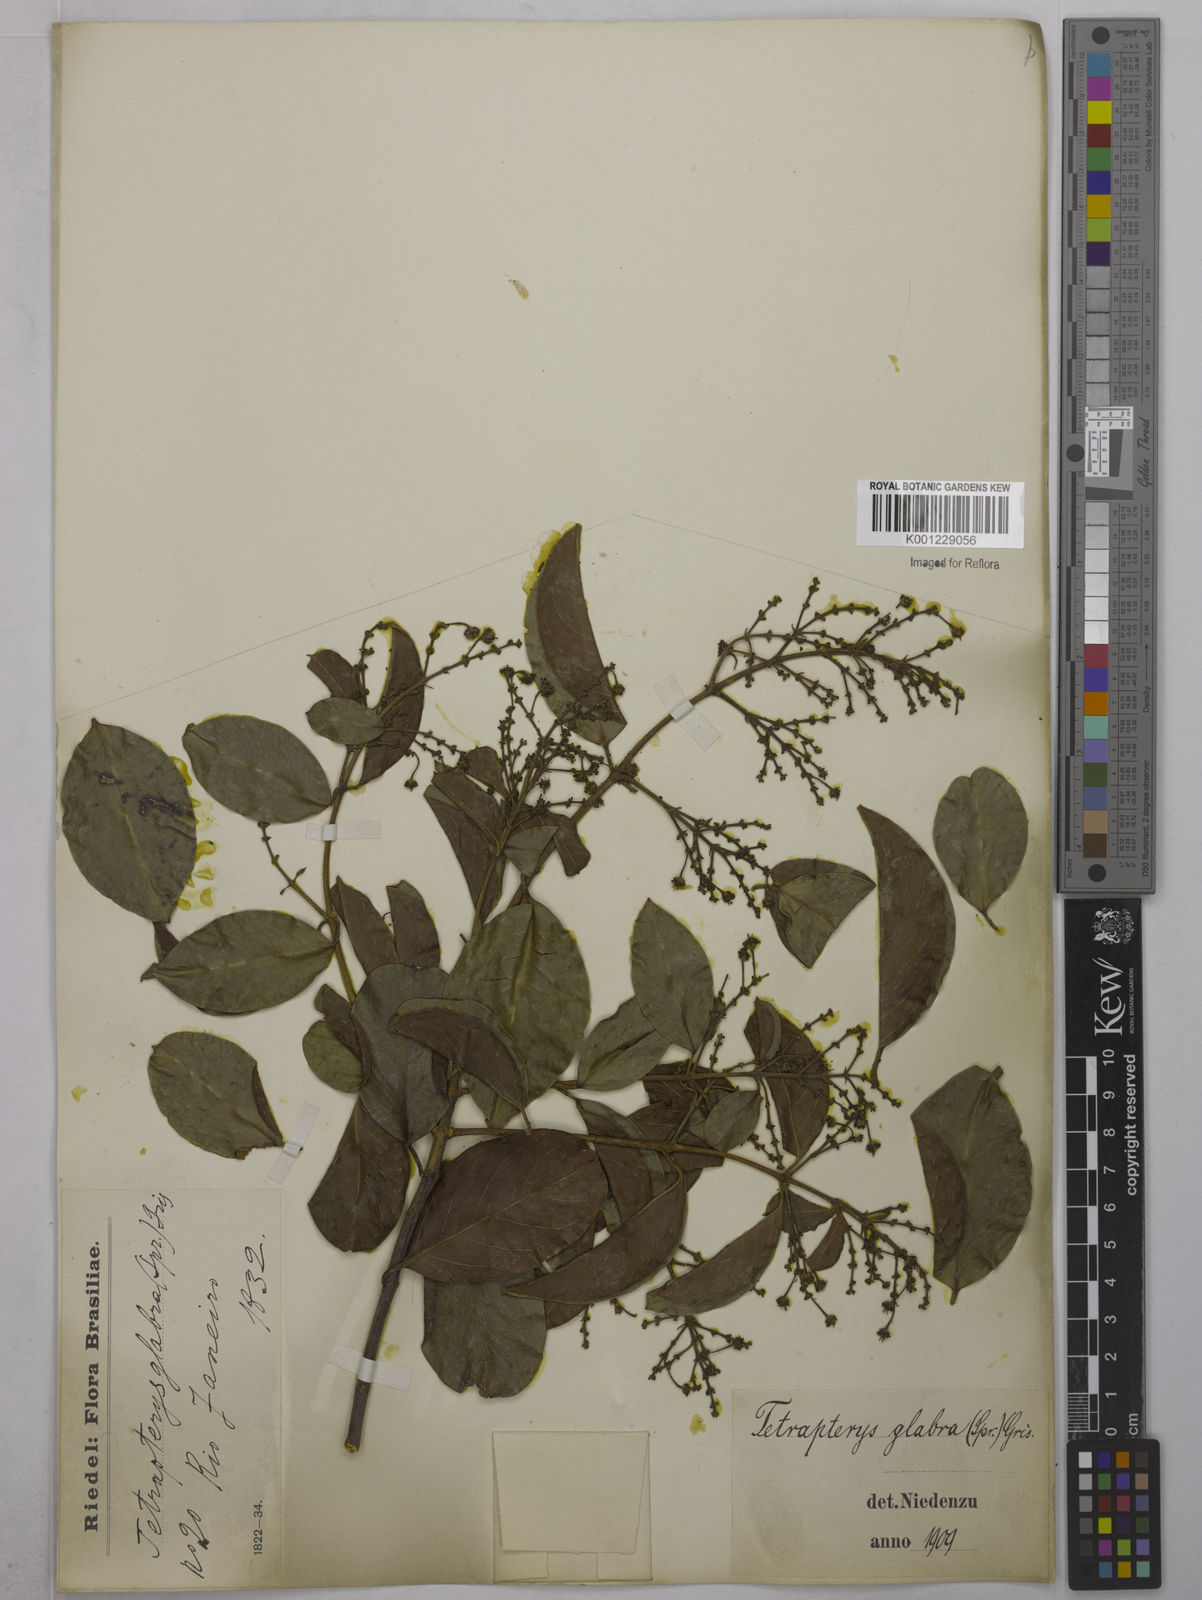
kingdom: Plantae
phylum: Tracheophyta
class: Magnoliopsida
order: Malpighiales
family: Malpighiaceae
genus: Niedenzuella
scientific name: Niedenzuella glabra
